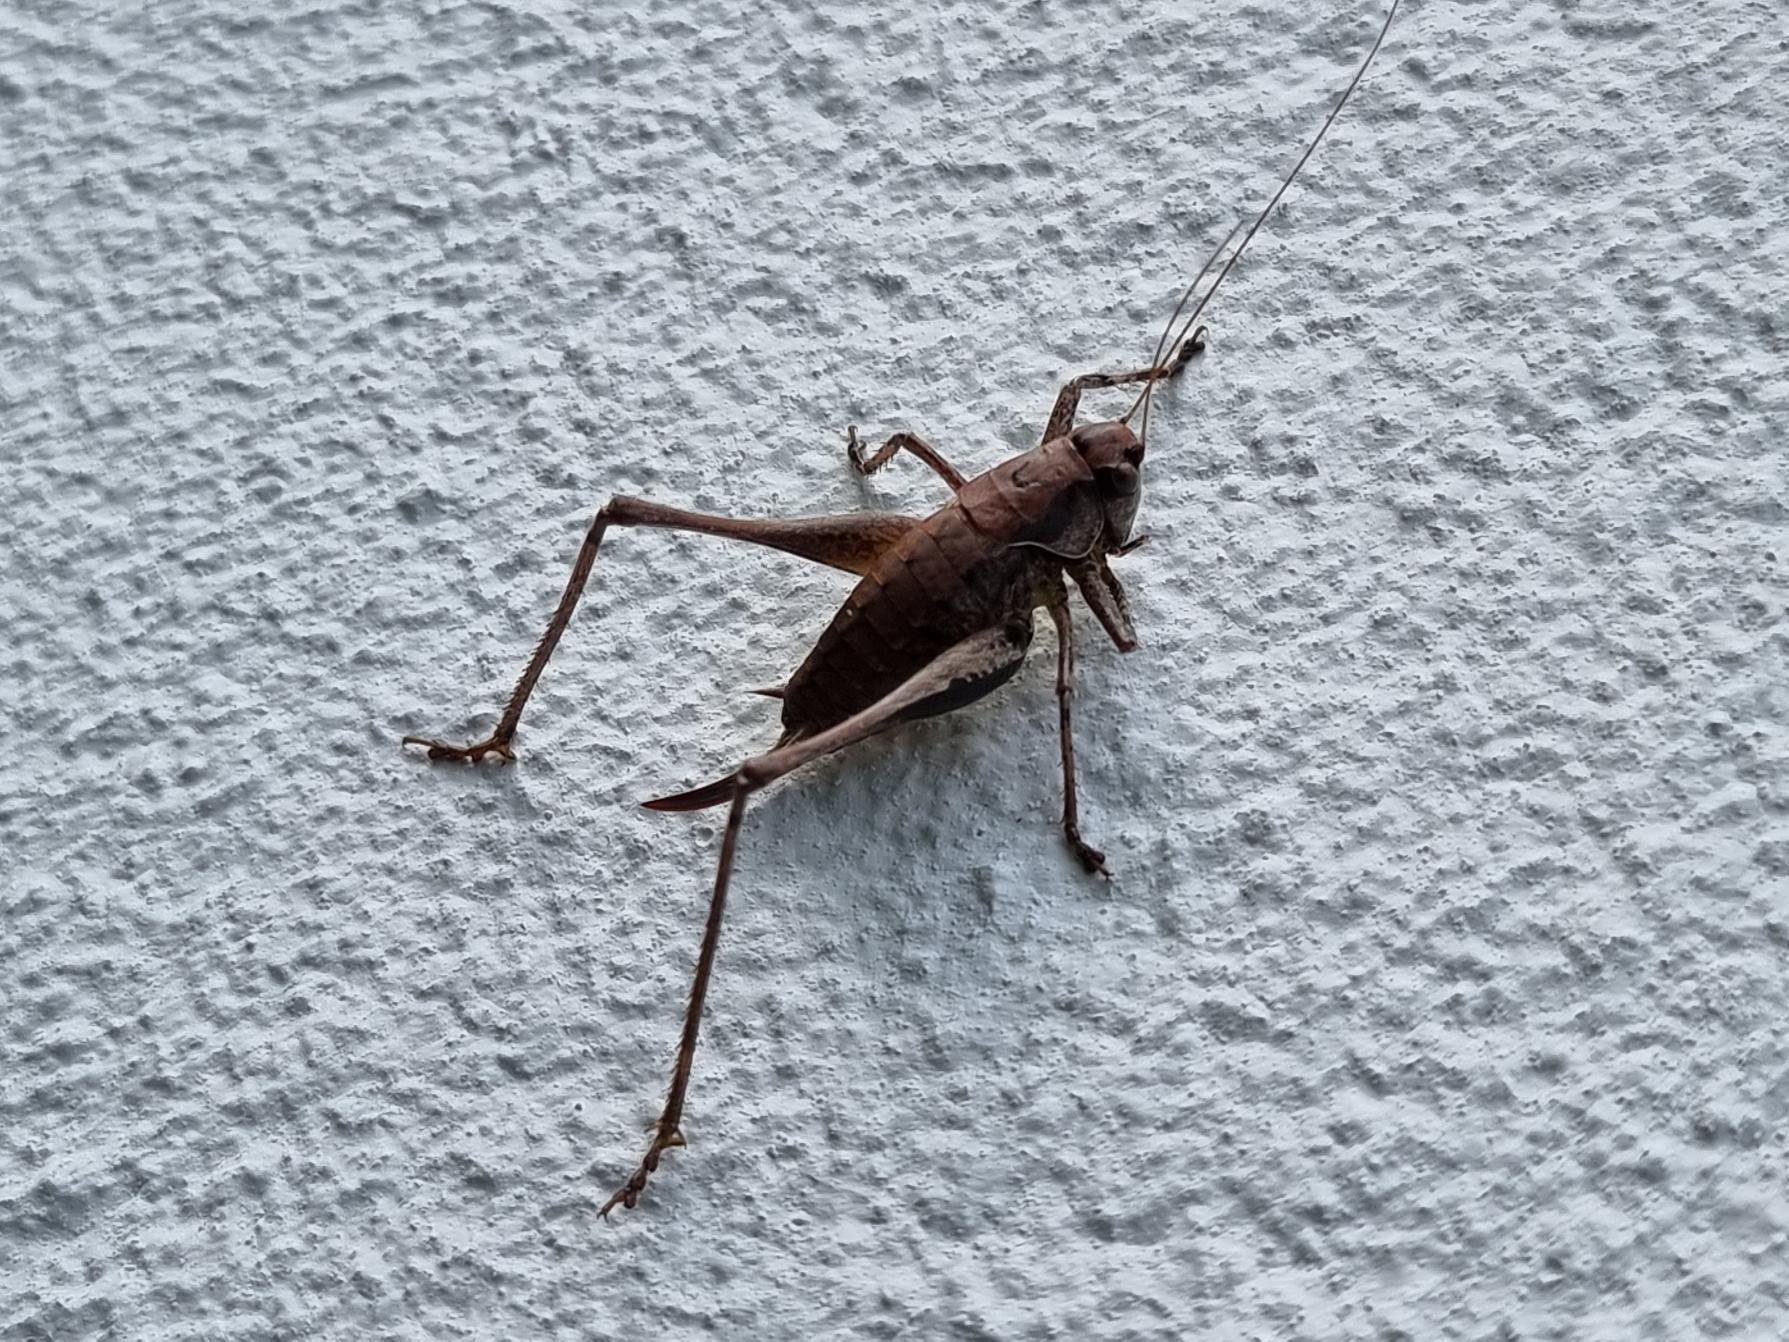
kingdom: Animalia
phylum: Arthropoda
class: Insecta
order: Orthoptera
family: Tettigoniidae
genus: Pholidoptera
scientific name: Pholidoptera griseoaptera
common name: Buskgræshoppe
